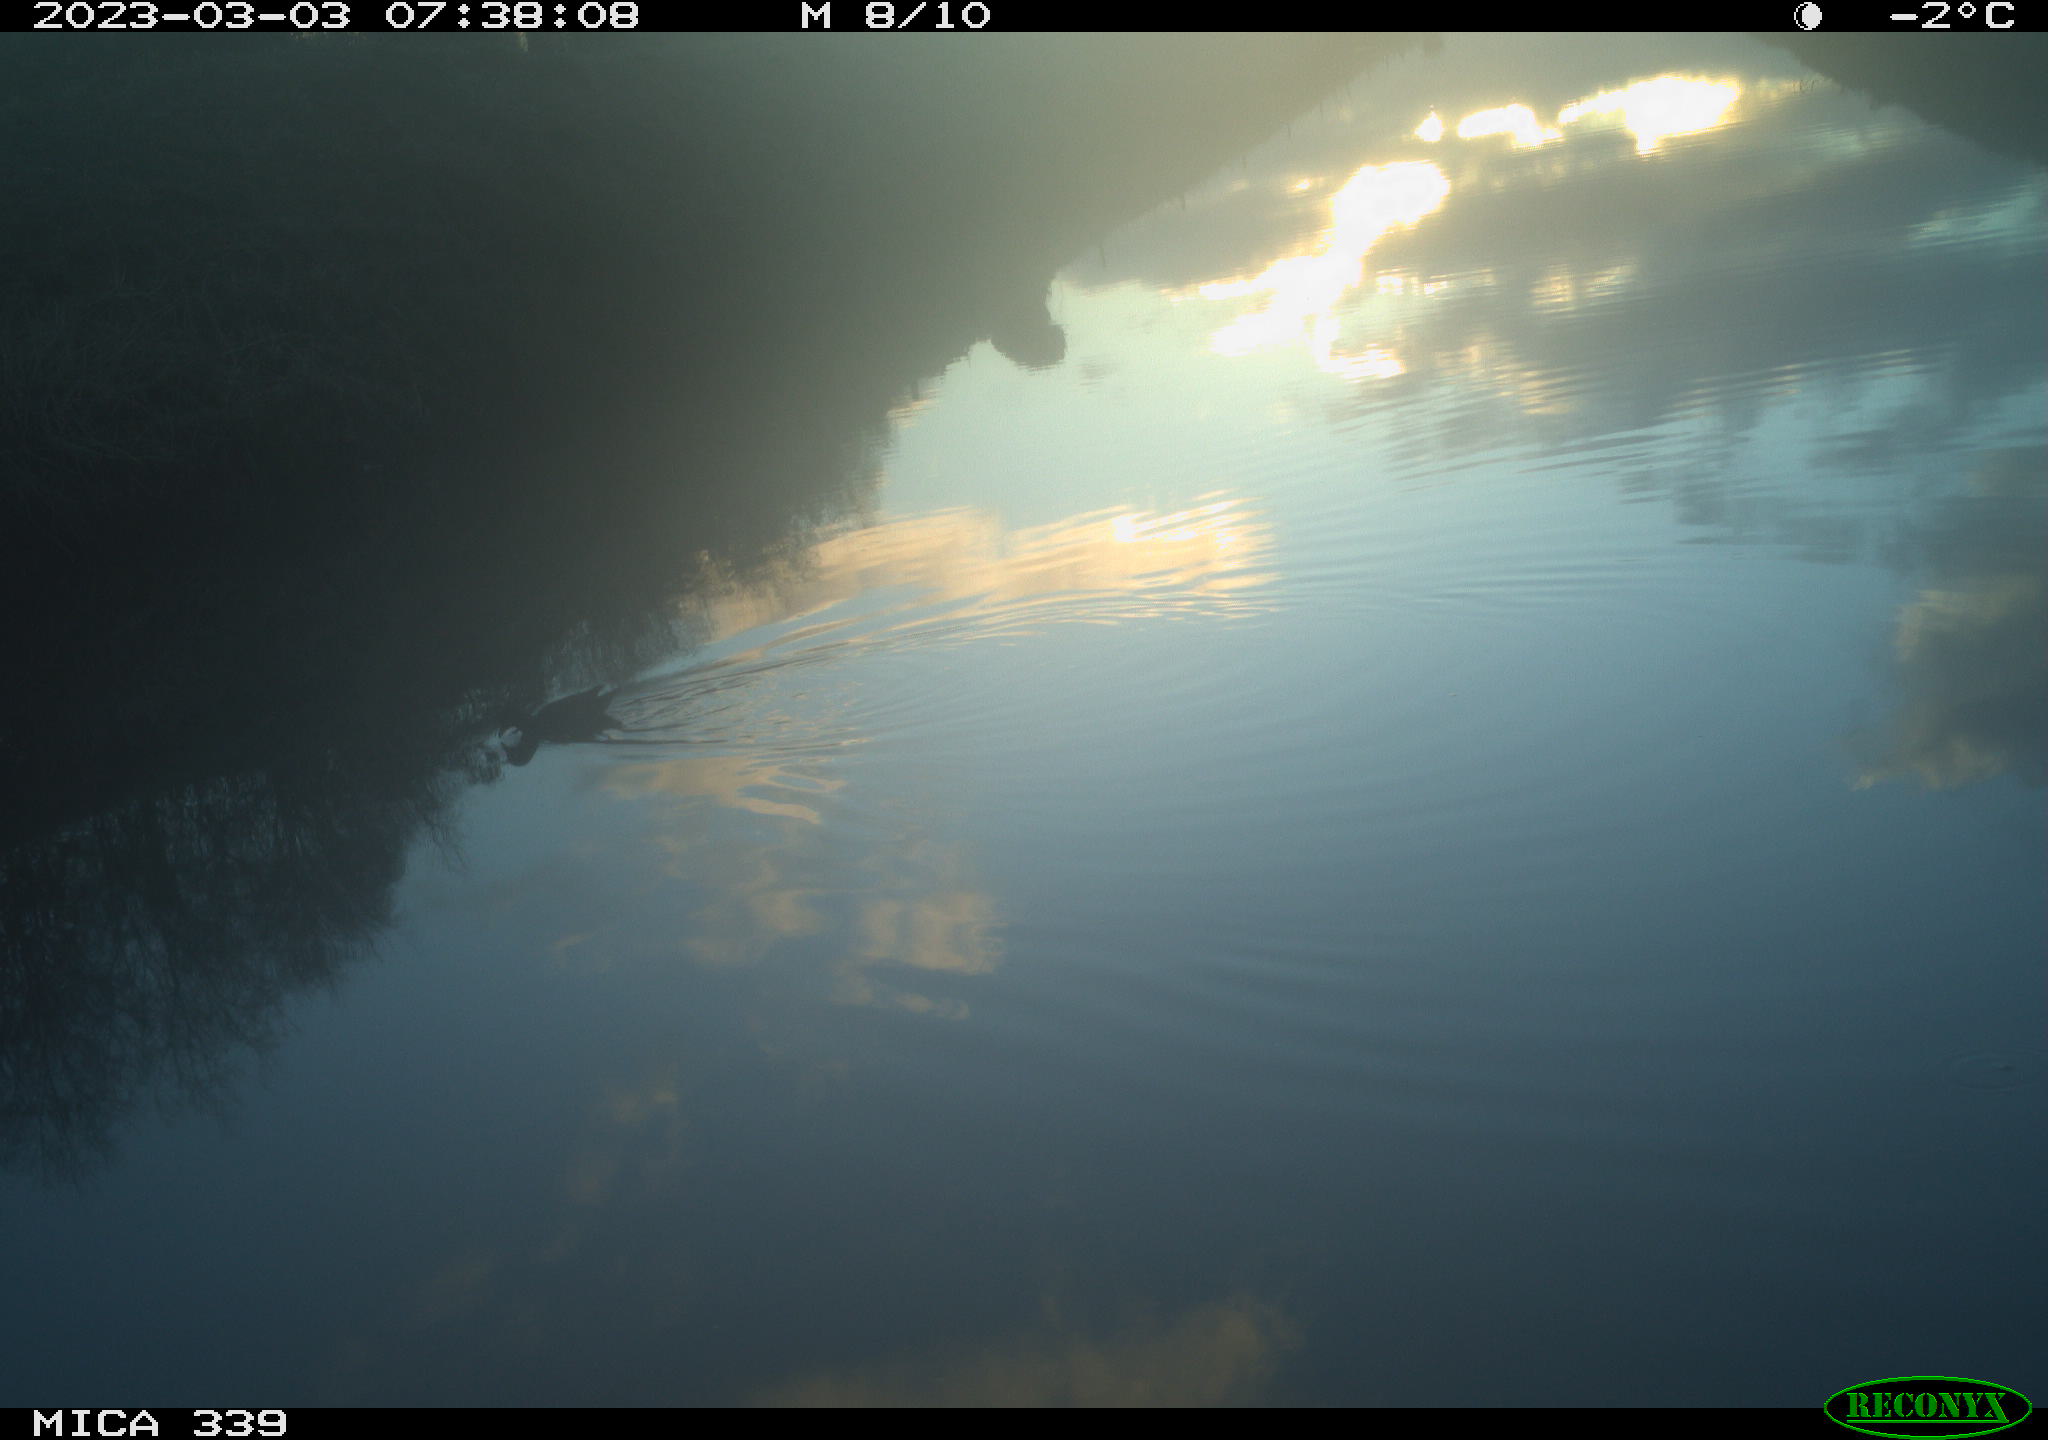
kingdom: Animalia
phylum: Chordata
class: Aves
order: Gruiformes
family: Rallidae
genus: Gallinula
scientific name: Gallinula chloropus
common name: Common moorhen
